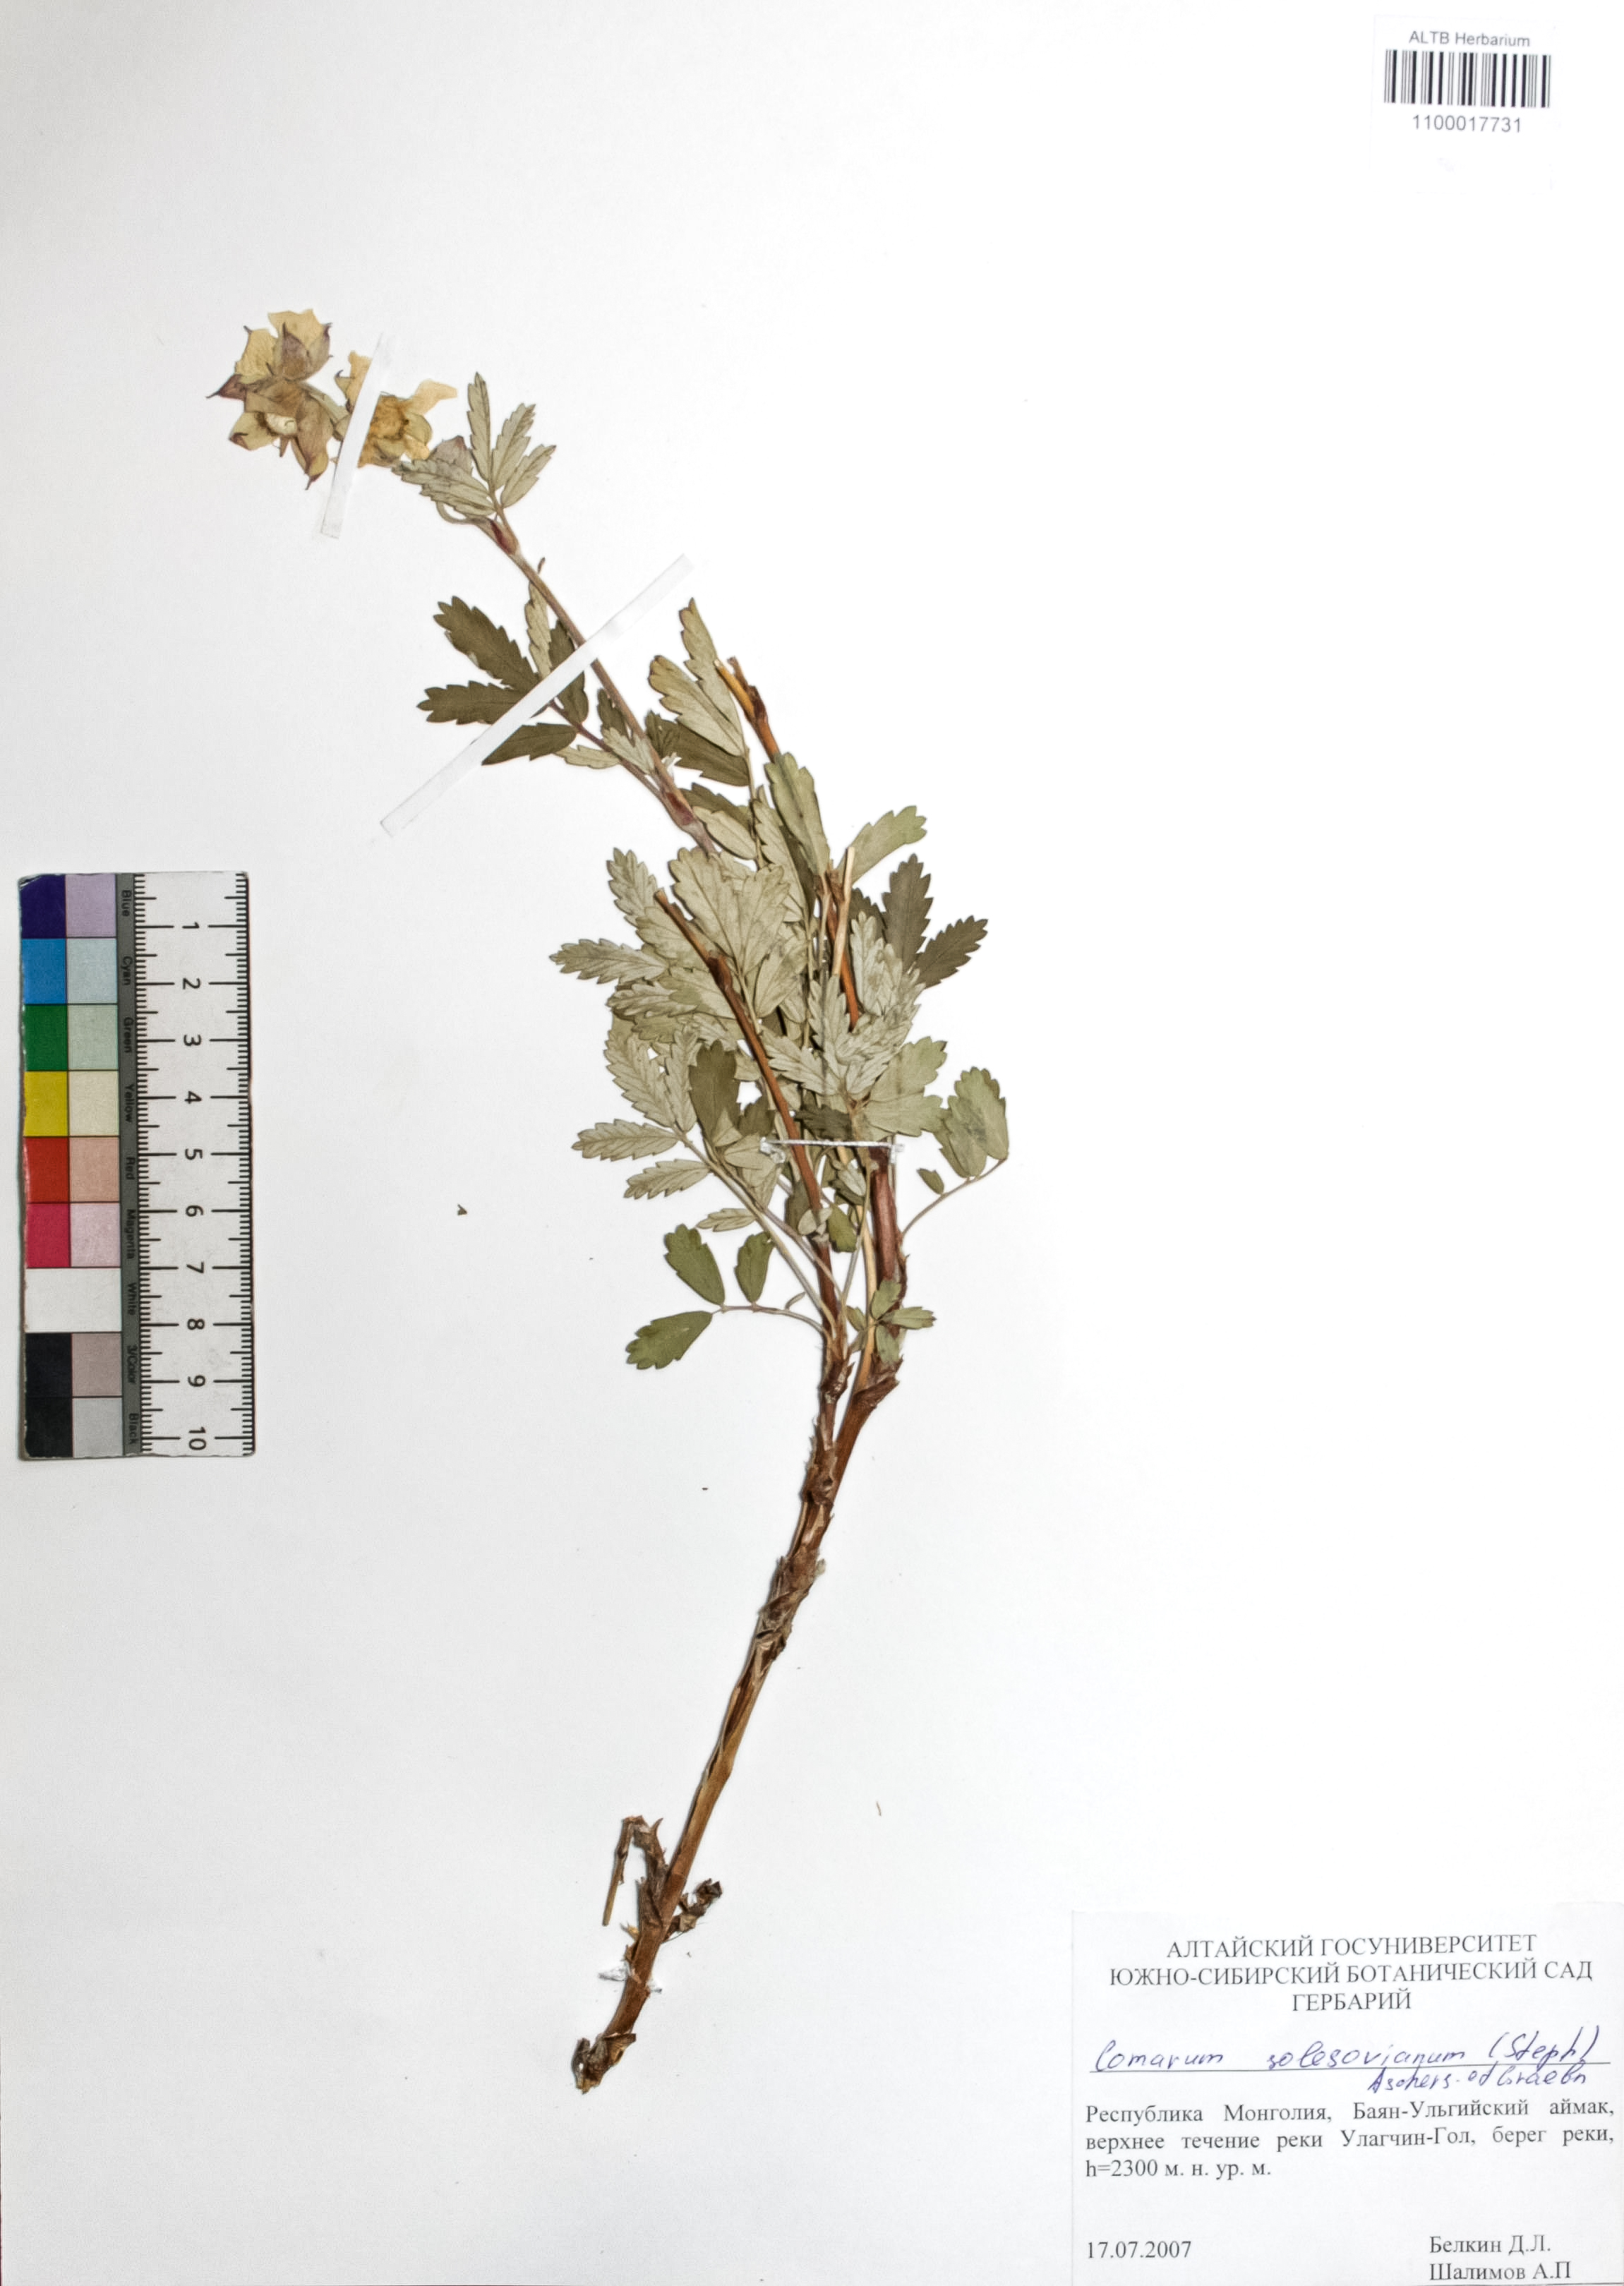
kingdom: Plantae
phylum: Tracheophyta
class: Magnoliopsida
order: Rosales
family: Rosaceae
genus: Farinopsis
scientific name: Farinopsis salesoviana
